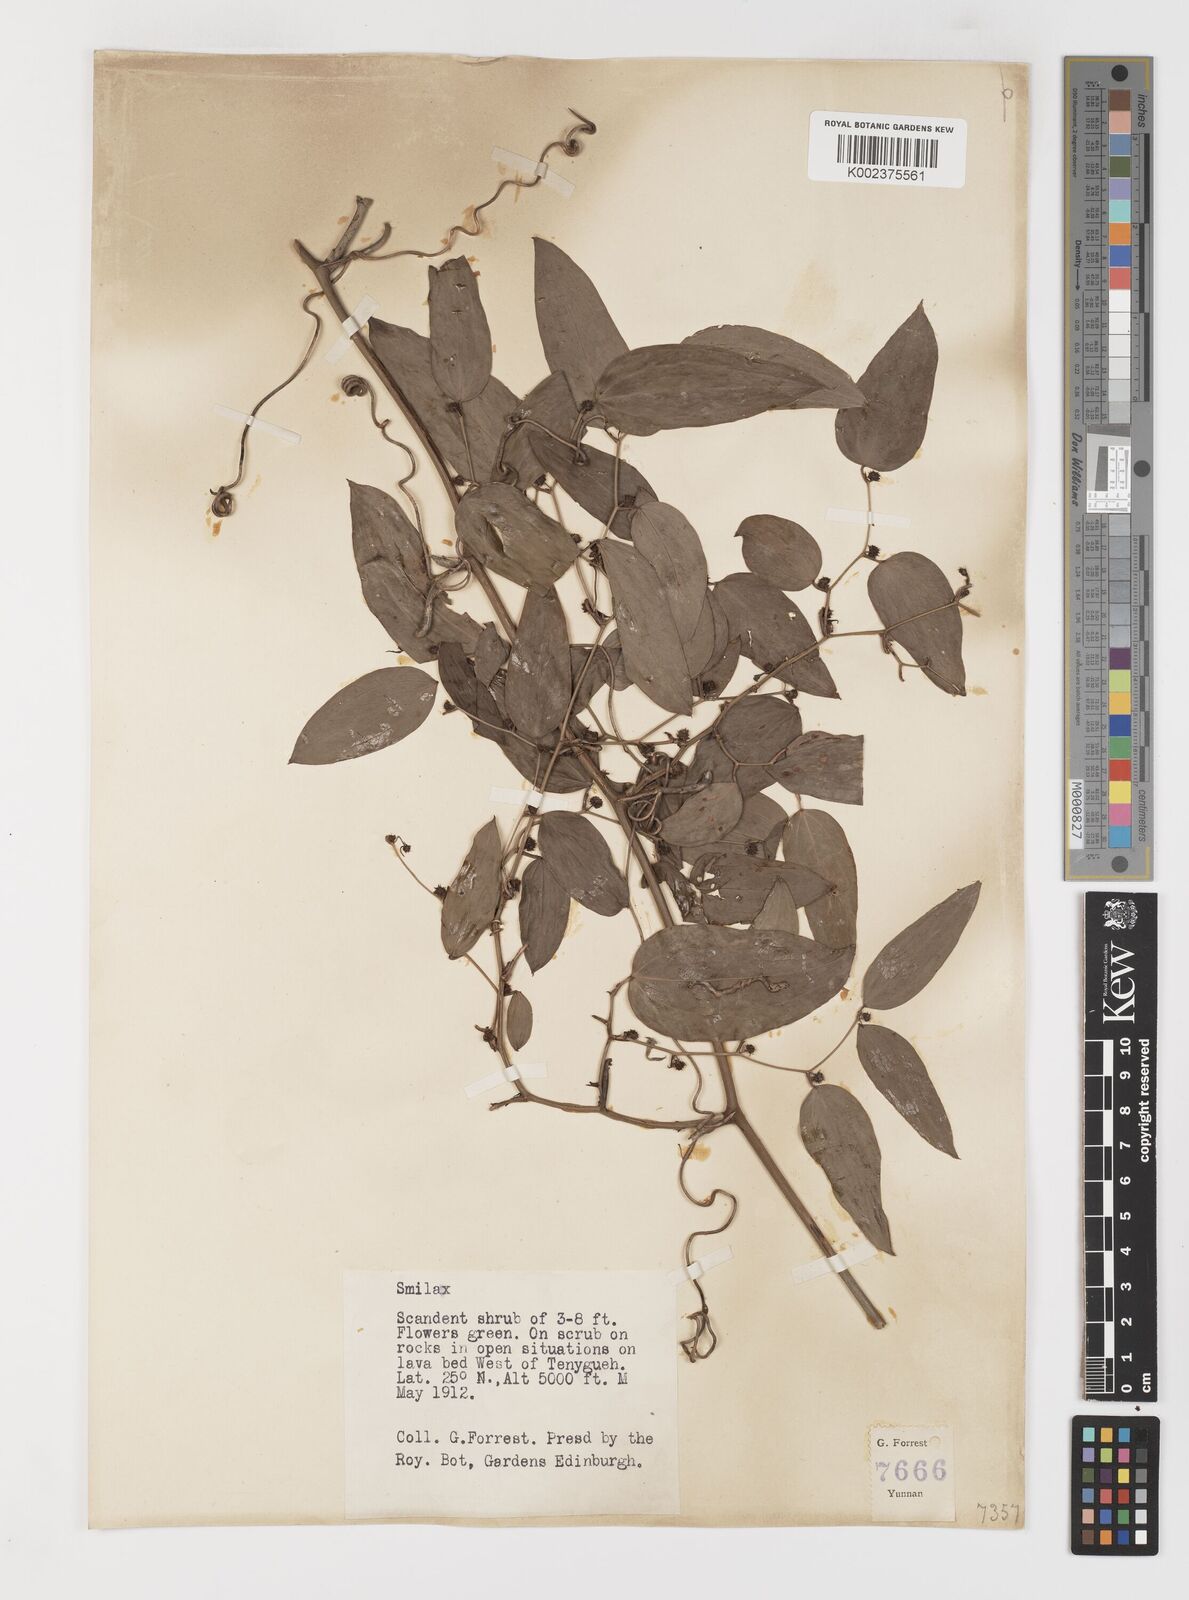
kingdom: Plantae
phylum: Tracheophyta
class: Liliopsida
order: Liliales
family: Smilacaceae
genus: Smilax
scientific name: Smilax lanceifolia
